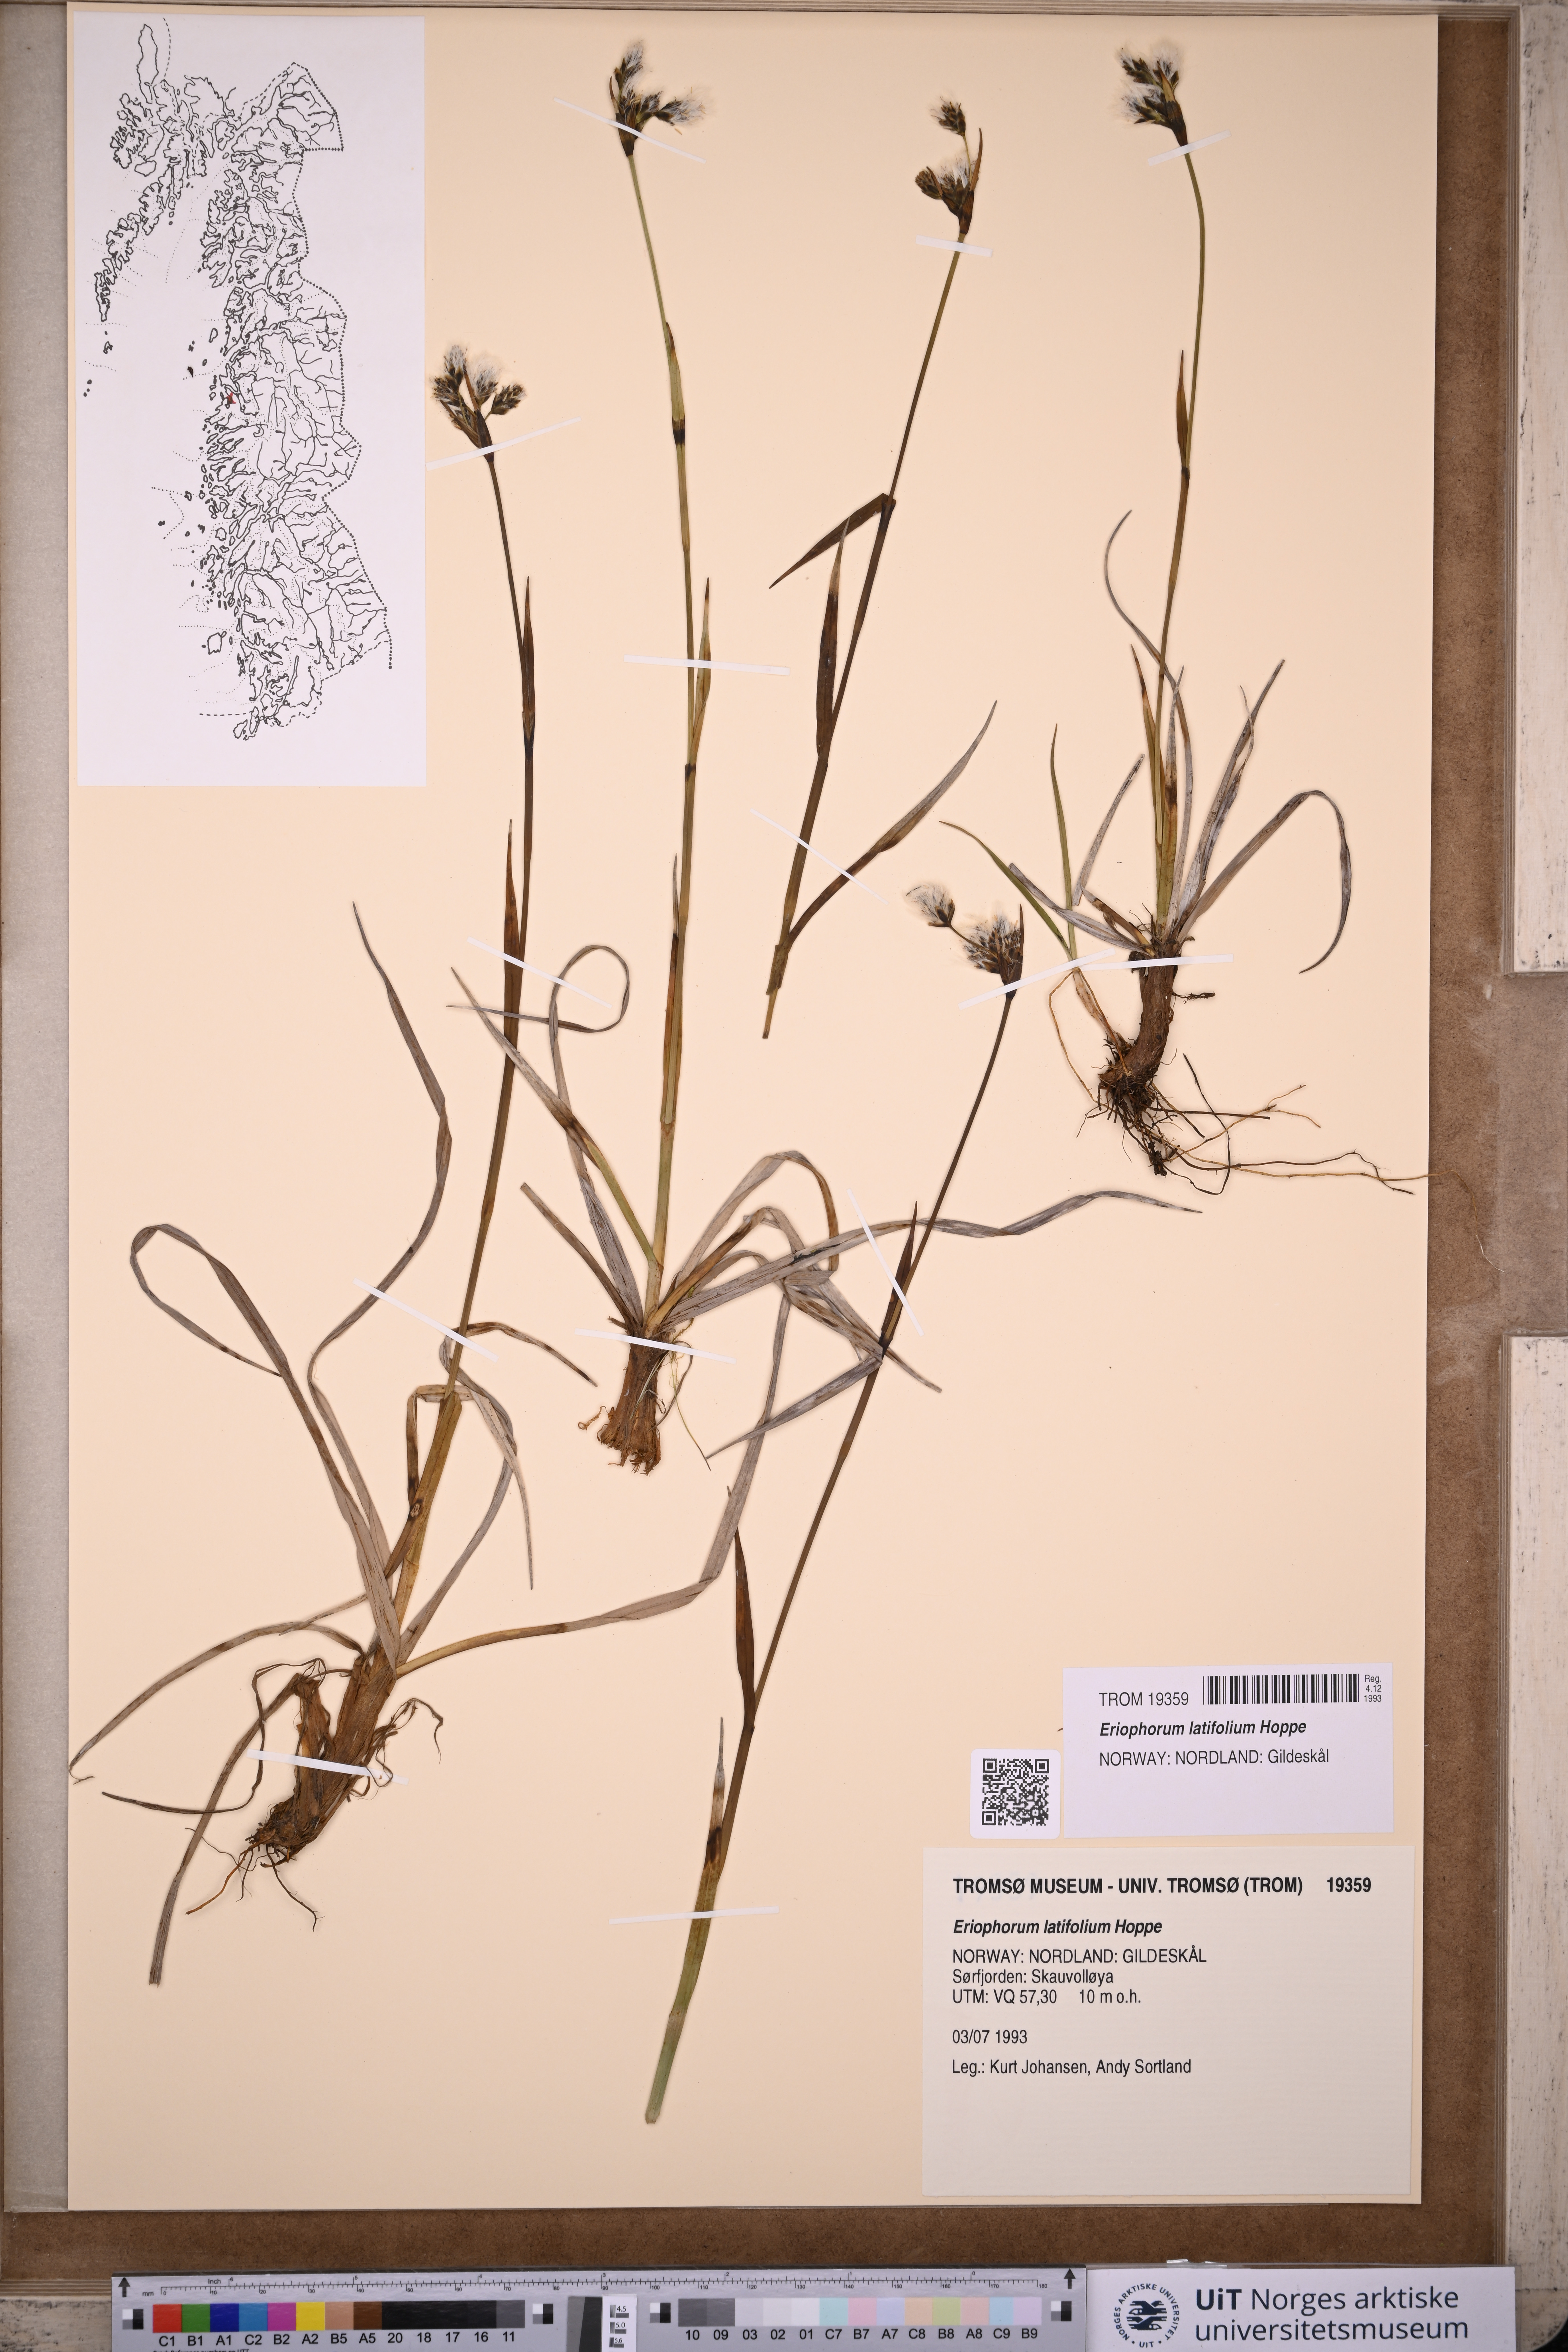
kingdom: Plantae
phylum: Tracheophyta
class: Liliopsida
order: Poales
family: Cyperaceae
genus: Eriophorum
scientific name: Eriophorum latifolium
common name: Broad-leaved cottongrass
